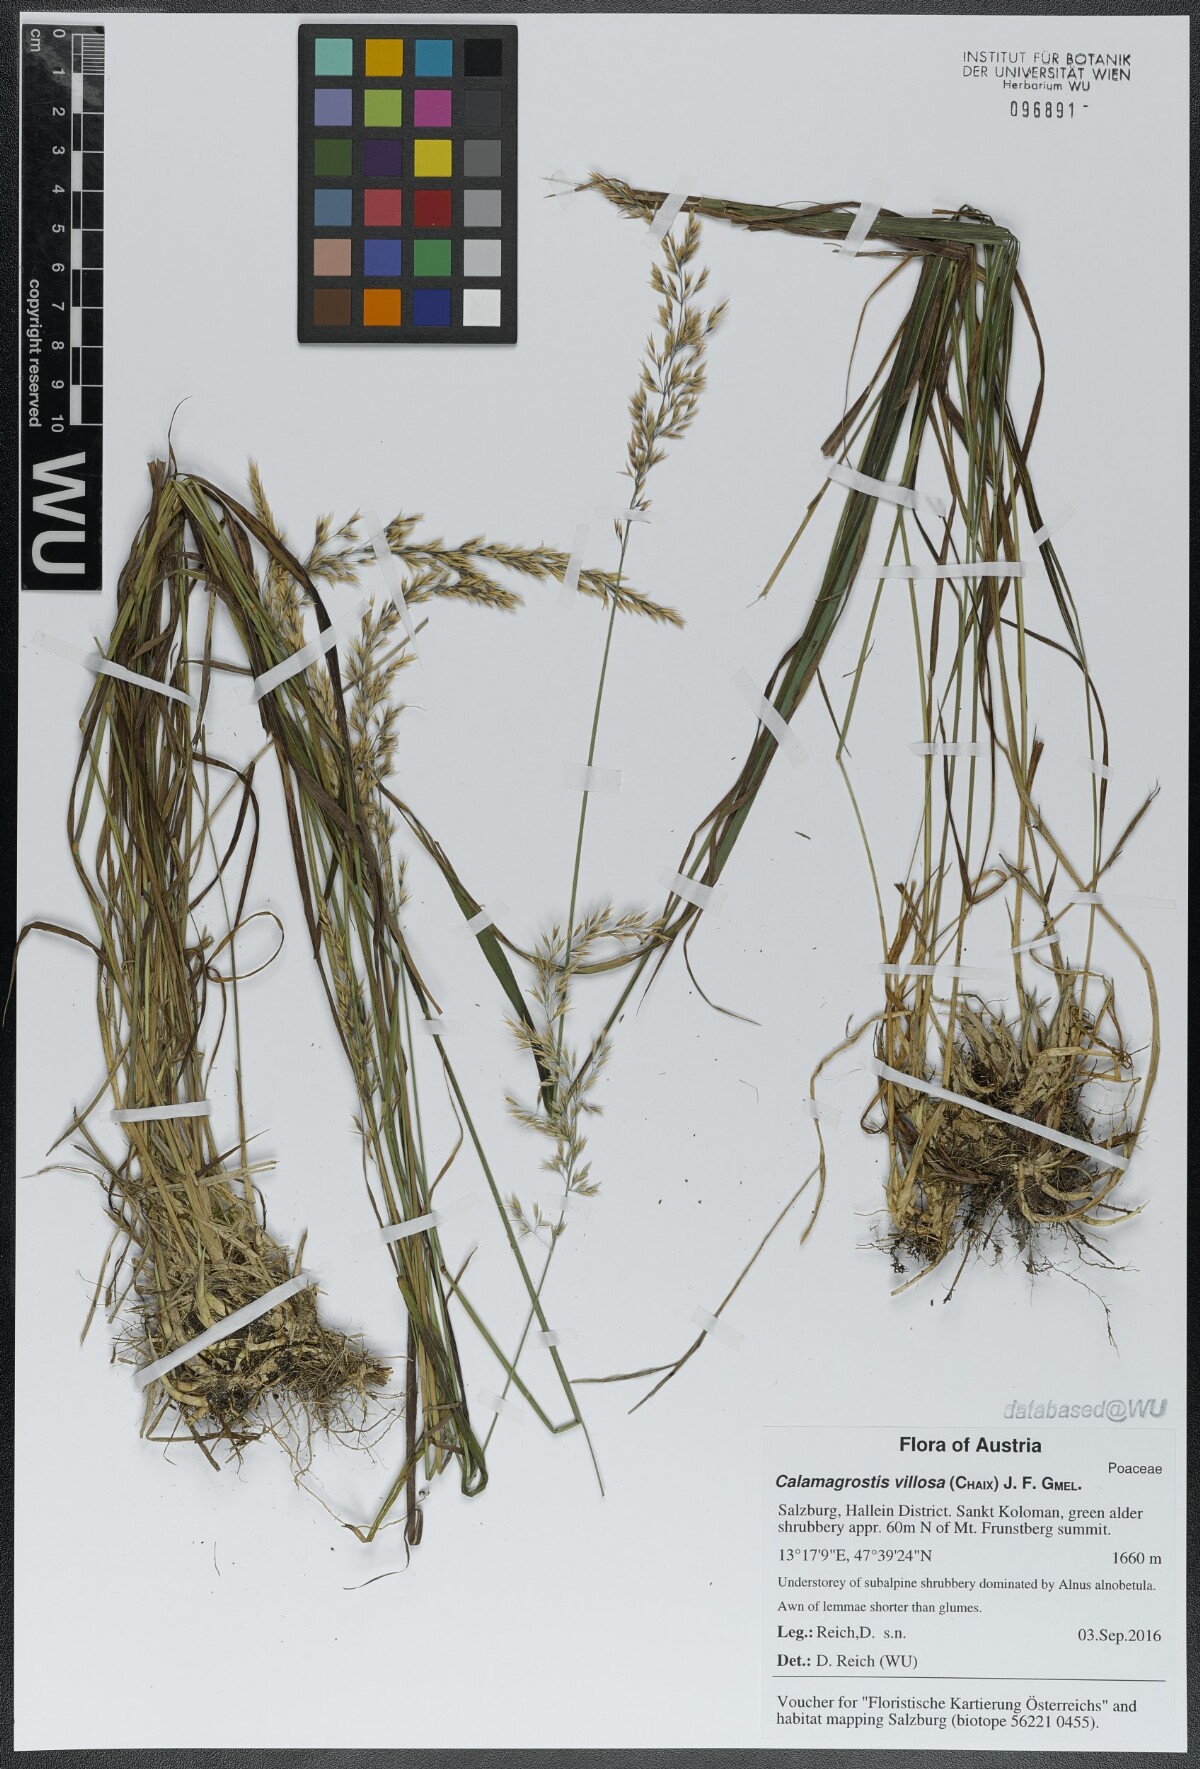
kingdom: Plantae
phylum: Tracheophyta
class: Liliopsida
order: Poales
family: Poaceae
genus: Calamagrostis
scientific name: Calamagrostis villosa
